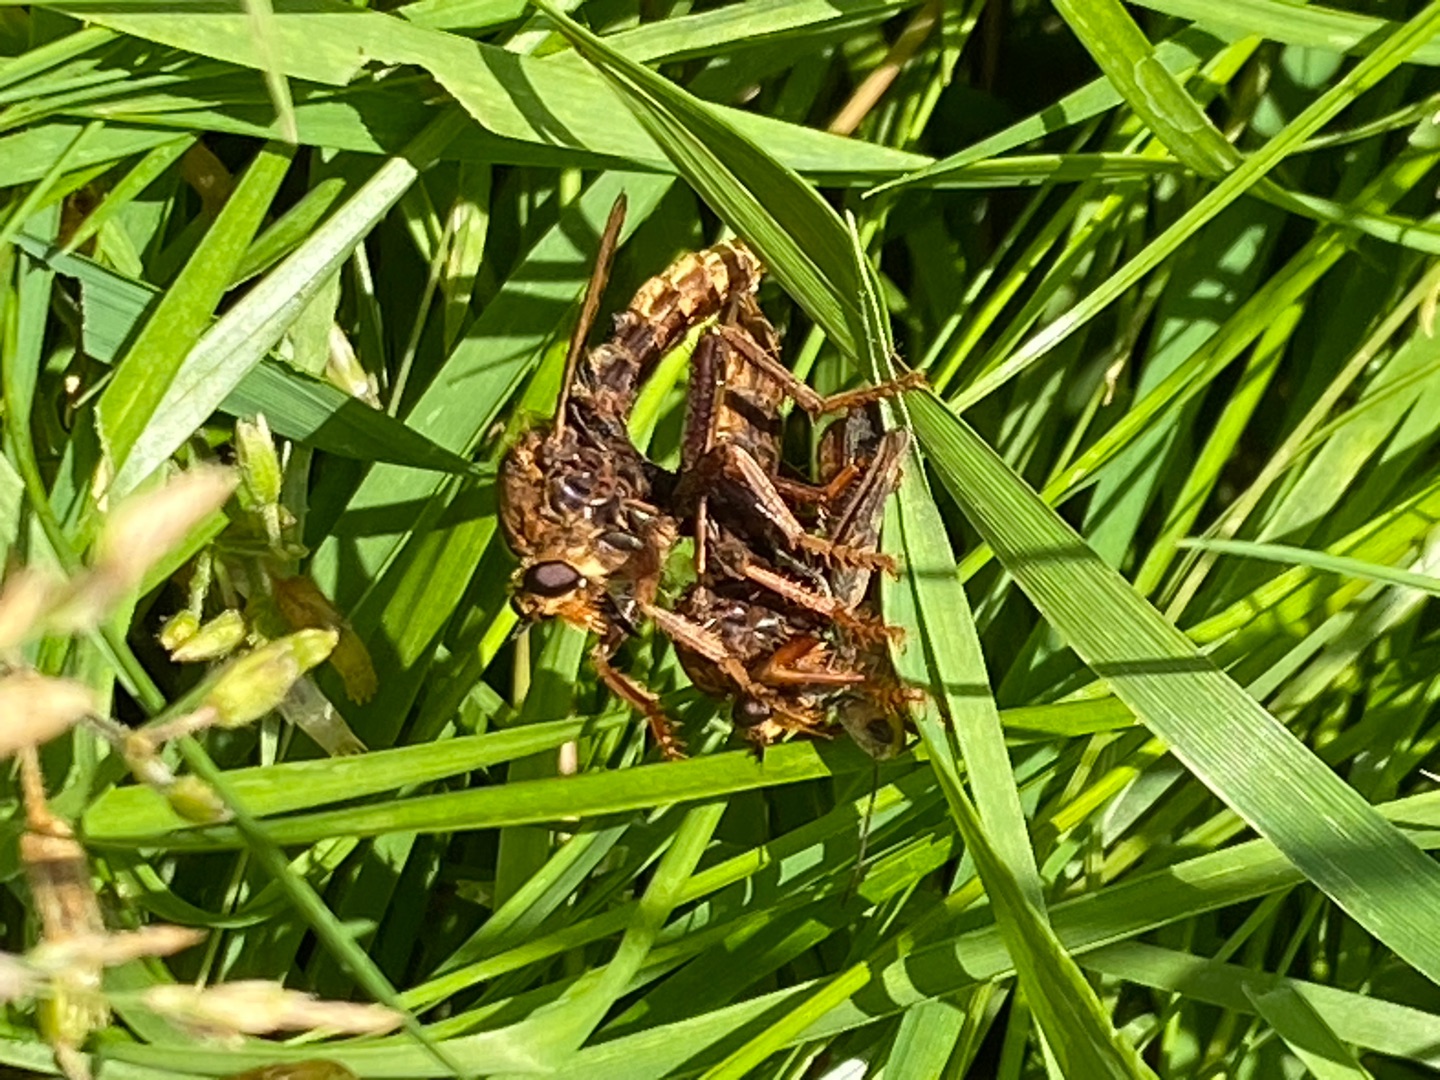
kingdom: Animalia
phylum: Arthropoda
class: Insecta
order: Diptera
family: Asilidae
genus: Asilus
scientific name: Asilus crabroniformis
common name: Stor gødningsrovflue
